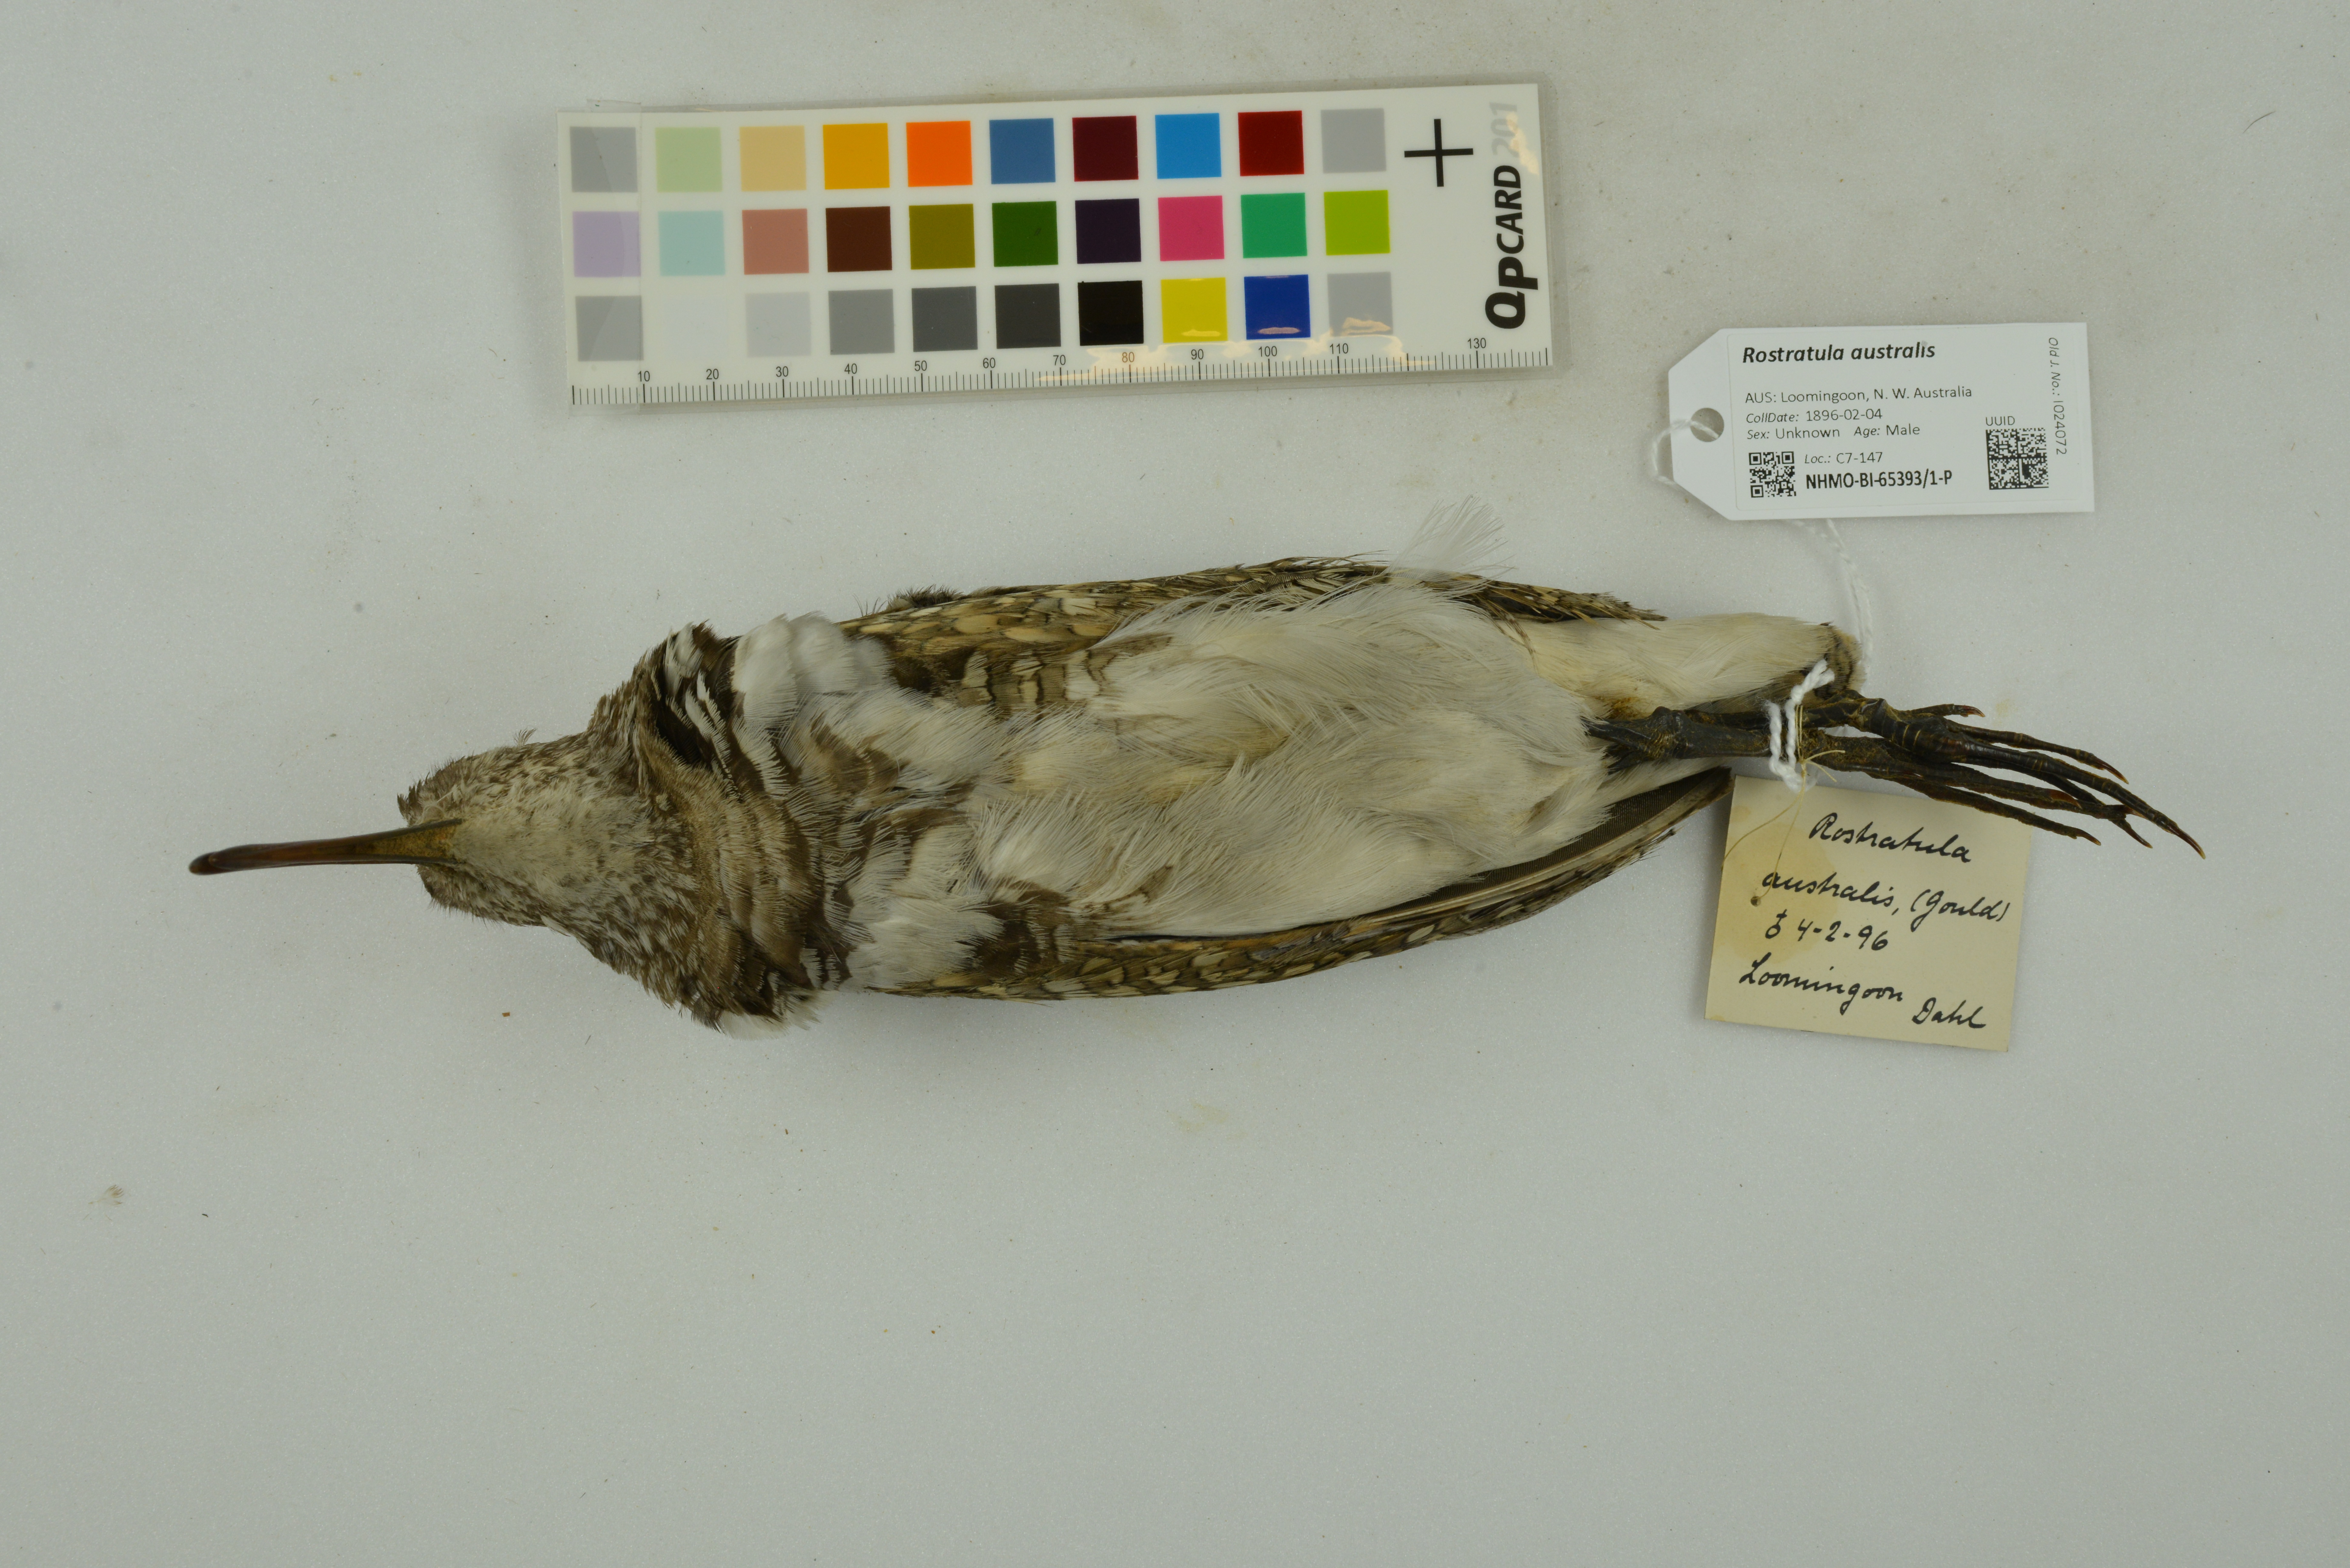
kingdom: Animalia
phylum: Chordata
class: Aves
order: Charadriiformes
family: Rostratulidae
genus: Rostratula
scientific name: Rostratula australis
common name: Australian painted-snipe
